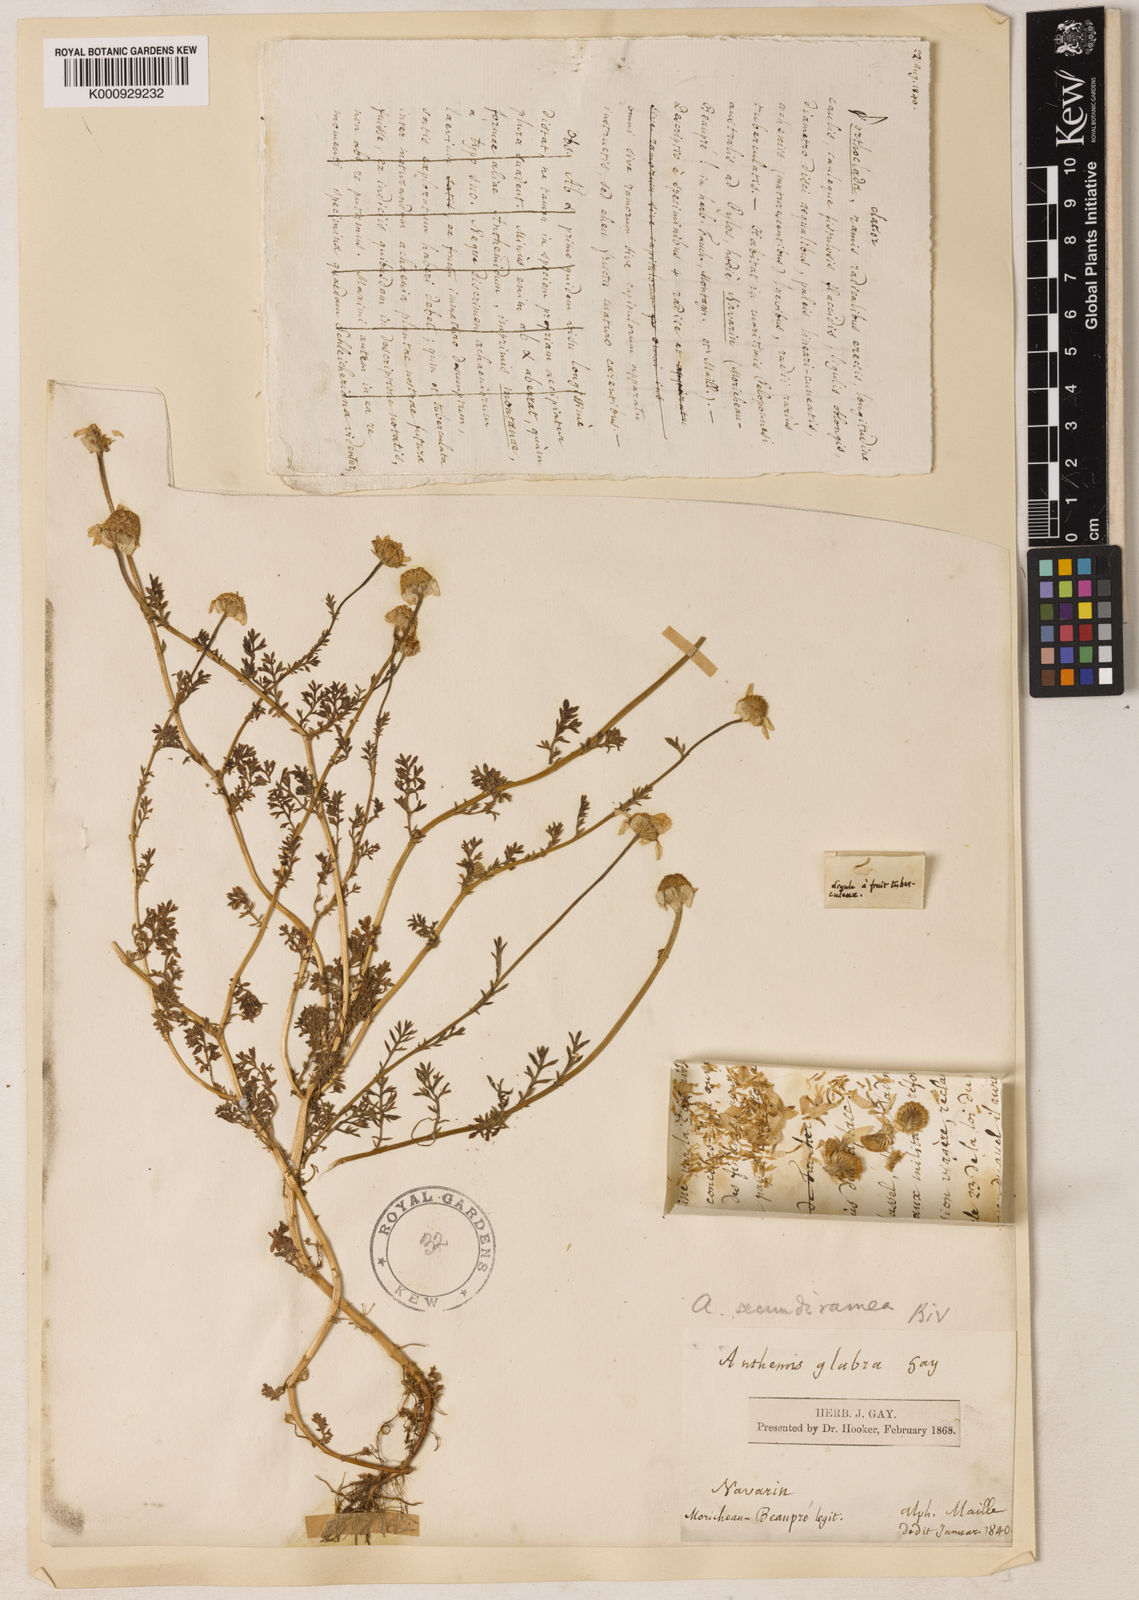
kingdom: Plantae
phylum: Tracheophyta
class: Magnoliopsida
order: Asterales
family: Asteraceae
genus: Allardia
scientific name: Allardia glabra
